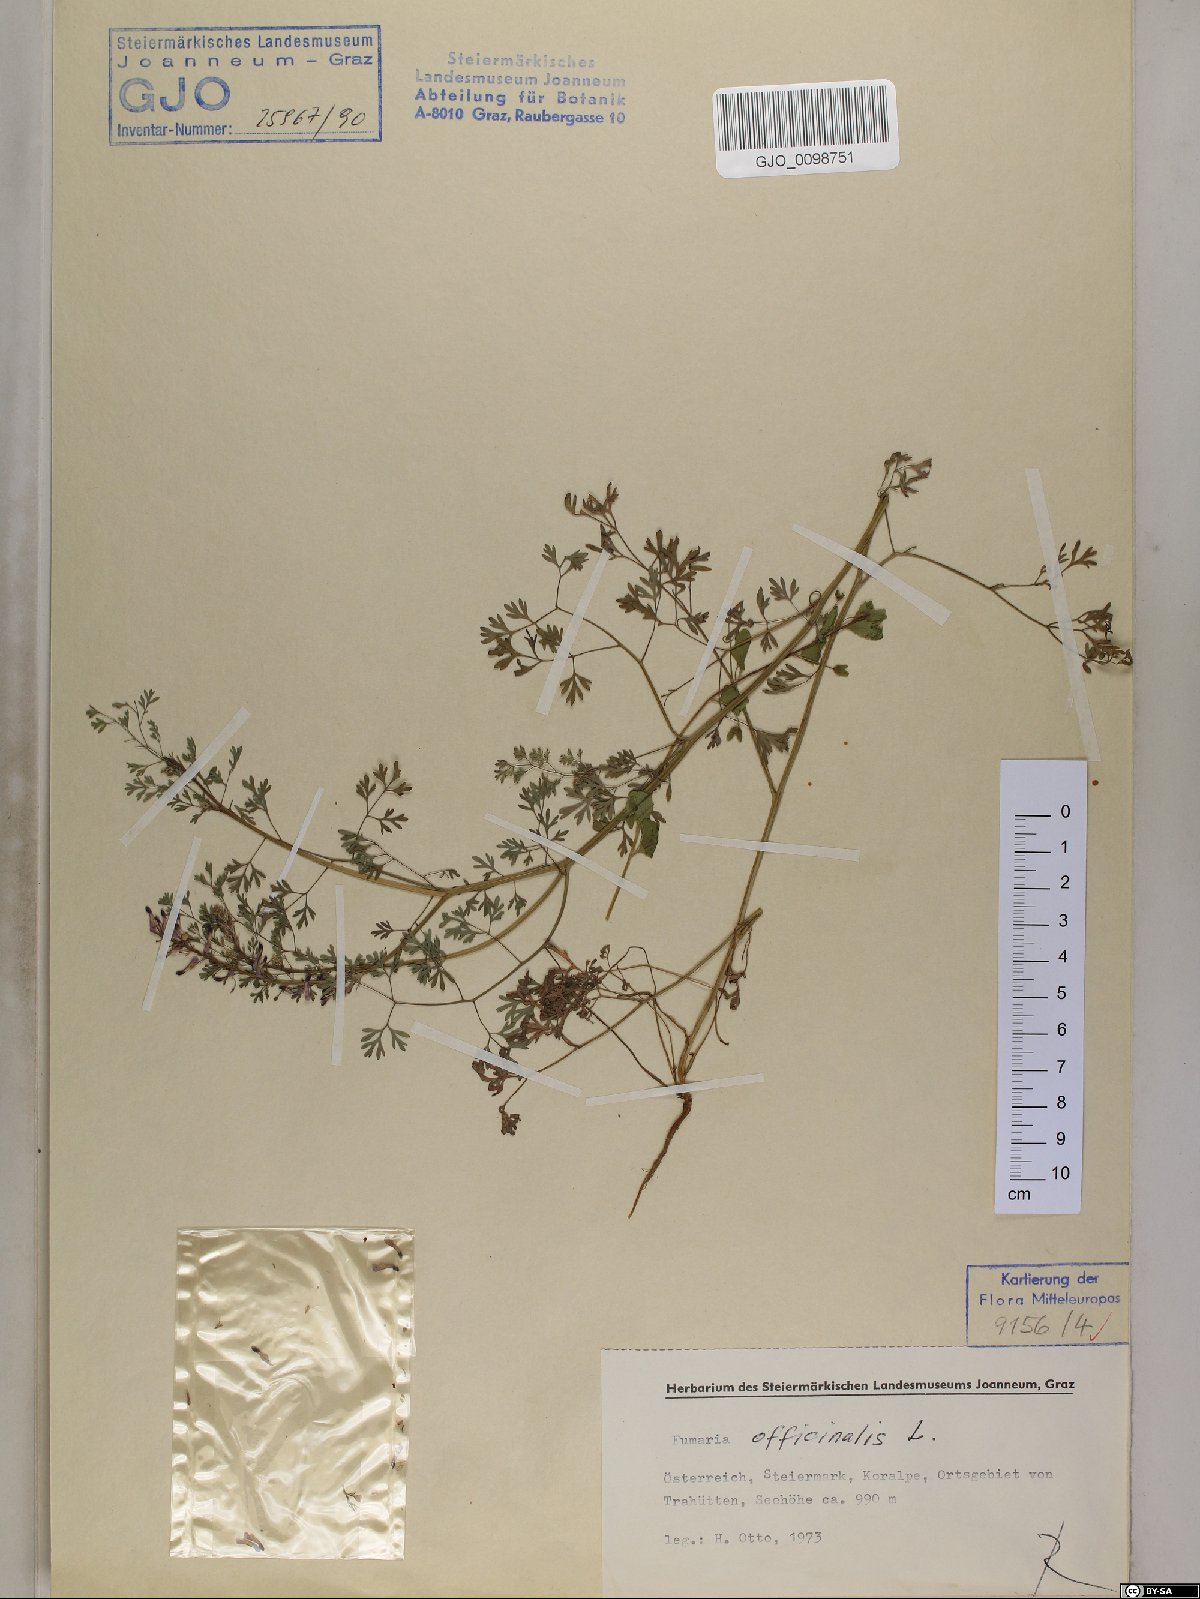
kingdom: Plantae
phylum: Tracheophyta
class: Magnoliopsida
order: Ranunculales
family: Papaveraceae
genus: Fumaria
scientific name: Fumaria officinalis
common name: Common fumitory
